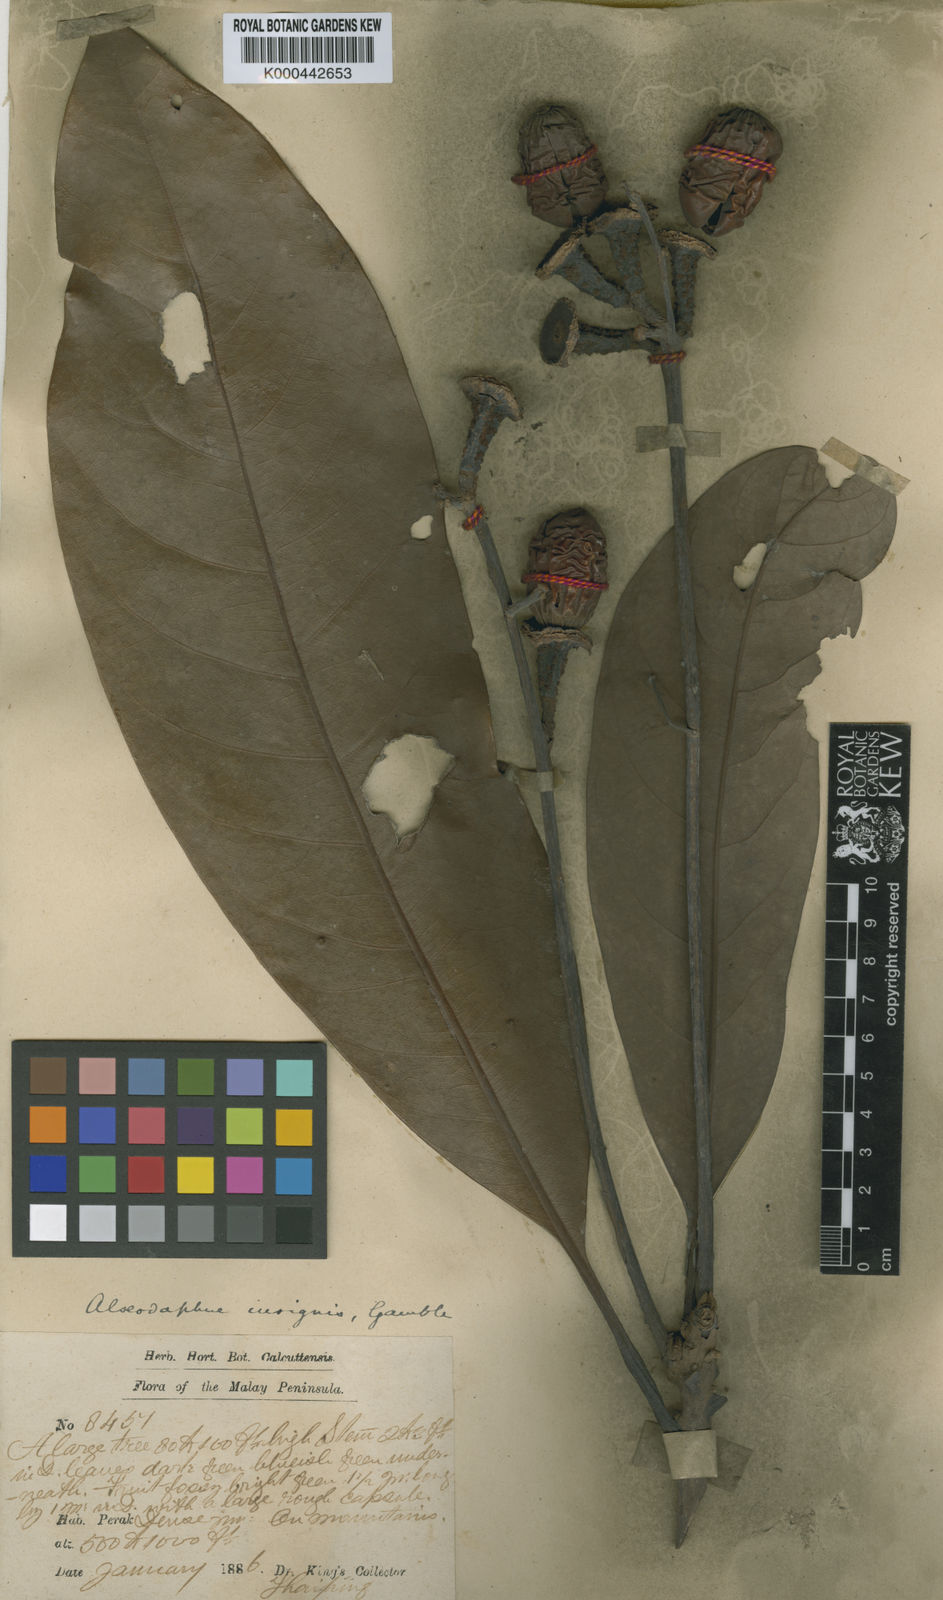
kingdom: Plantae
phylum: Tracheophyta
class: Magnoliopsida
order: Laurales
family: Lauraceae
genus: Alseodaphne
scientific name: Alseodaphne insignis
